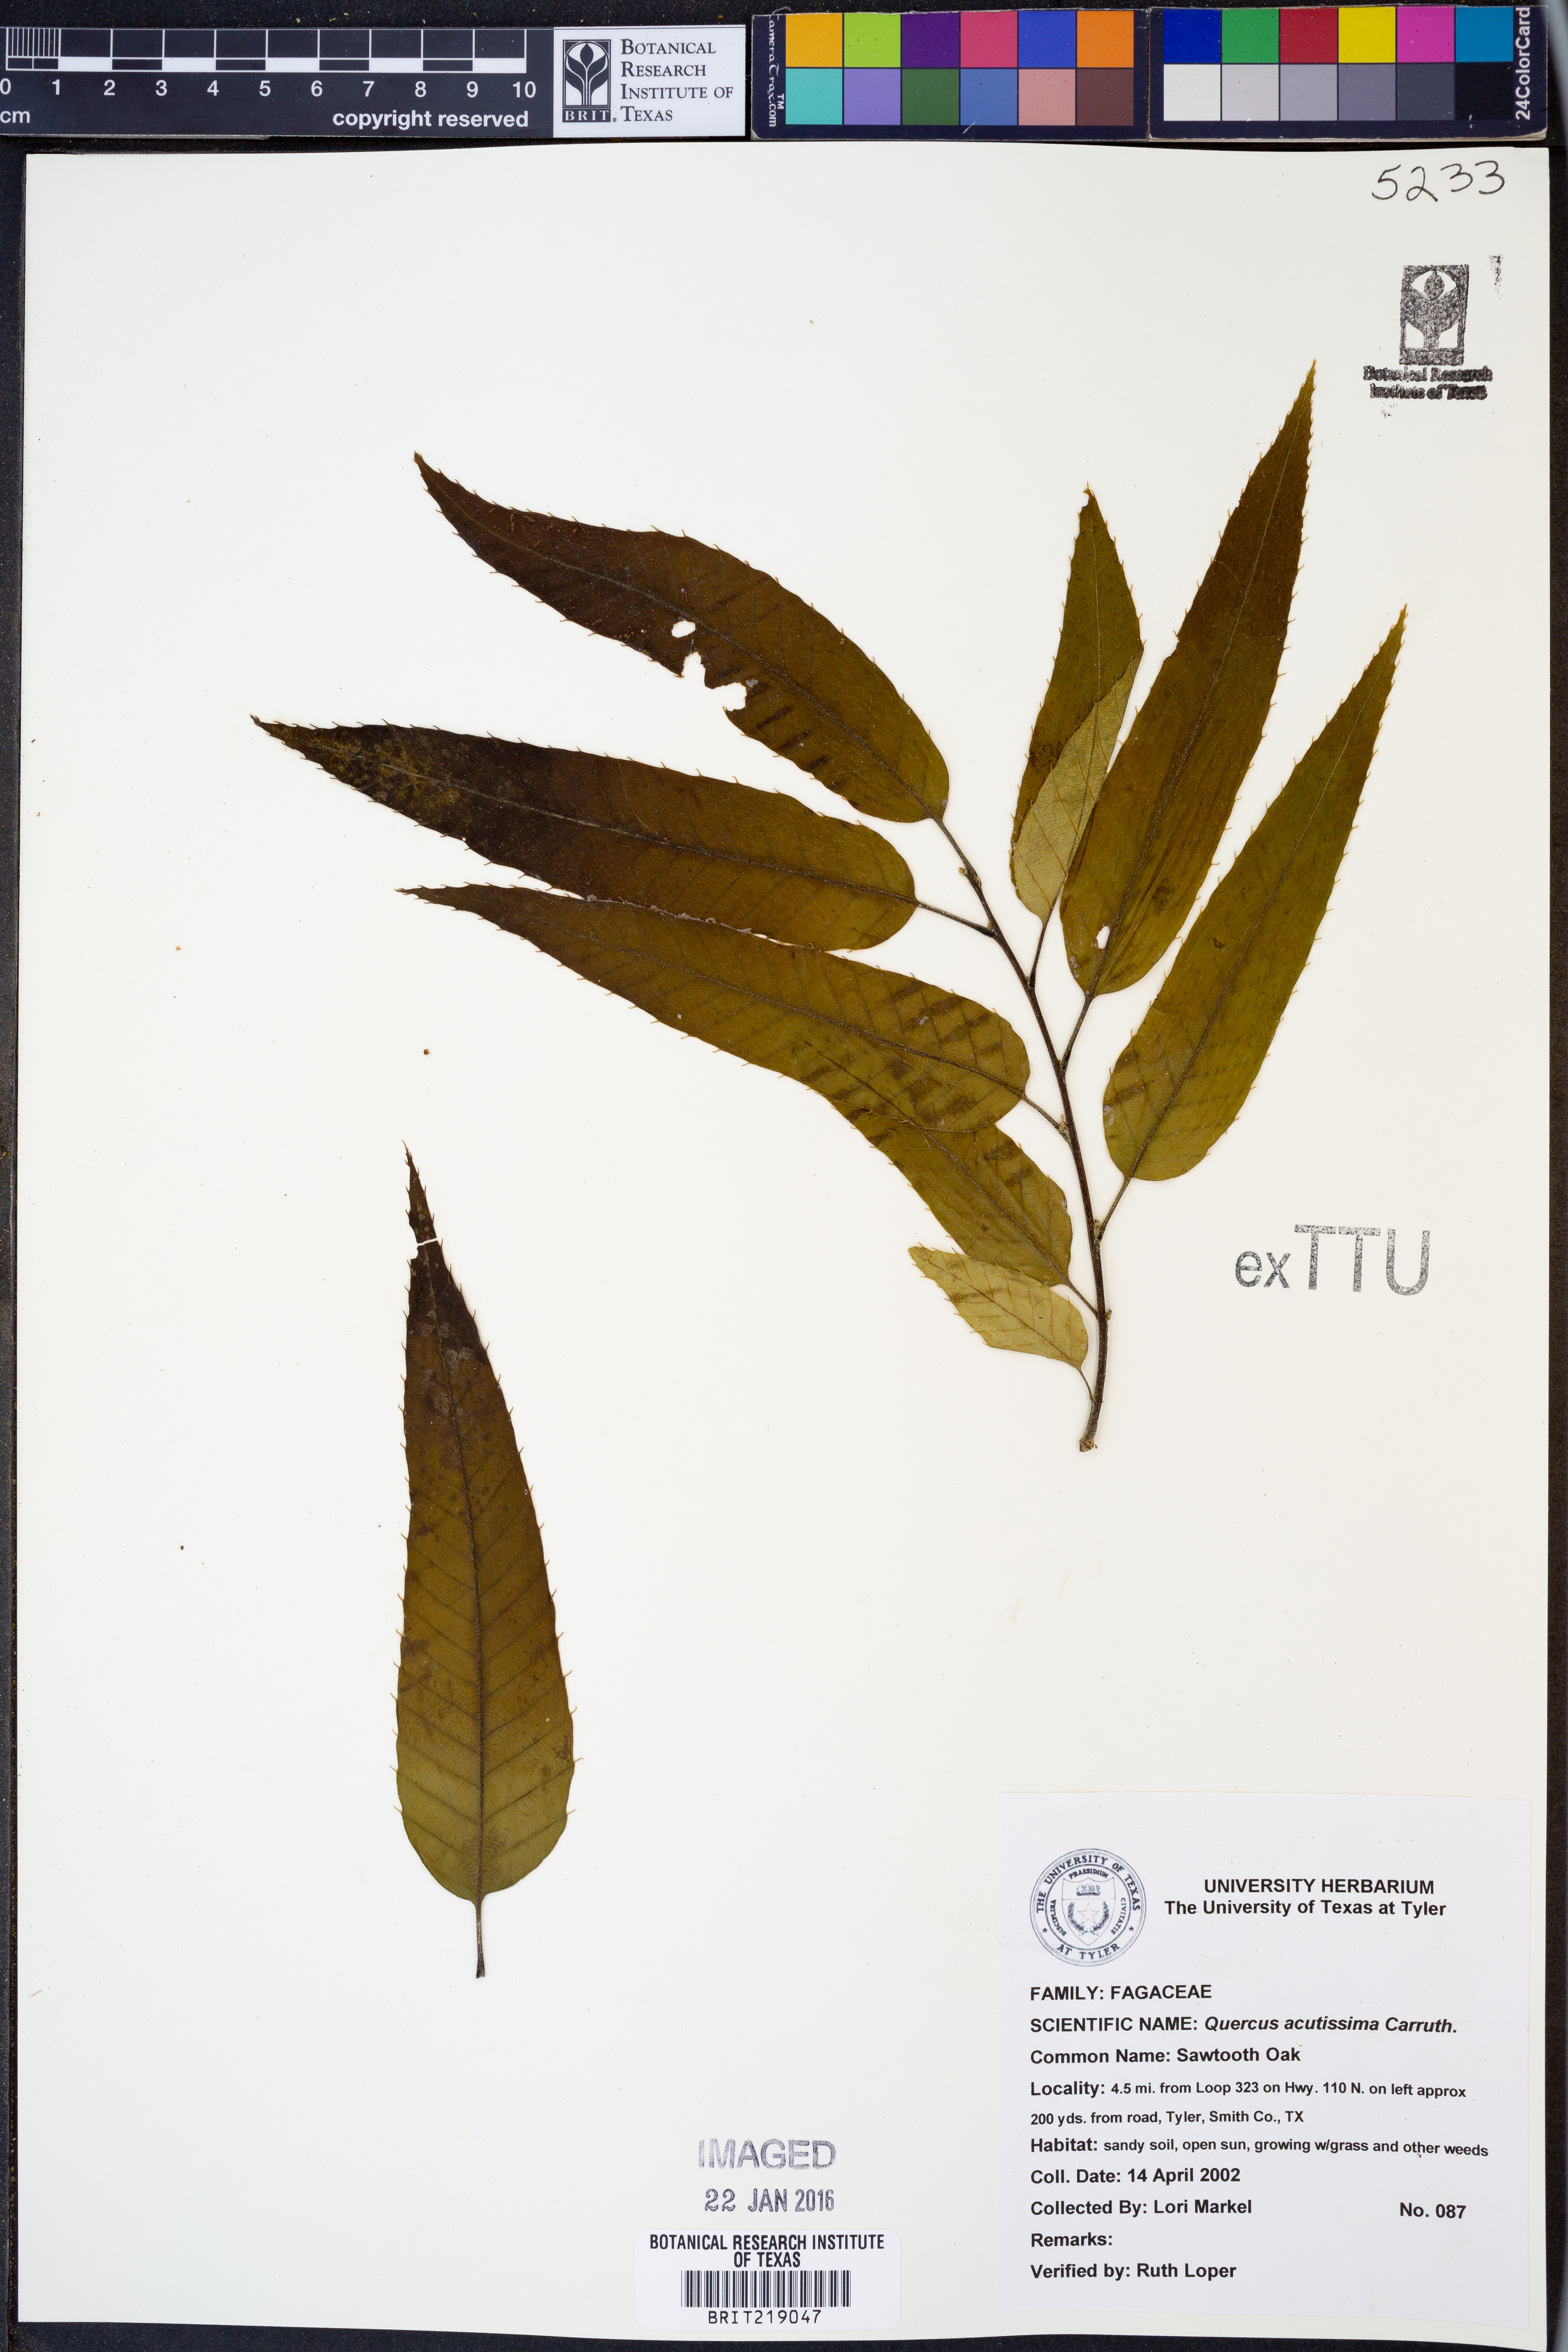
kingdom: Plantae
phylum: Tracheophyta
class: Magnoliopsida
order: Fagales
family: Fagaceae
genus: Quercus
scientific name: Quercus acutissima
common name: Sawtooth oak
